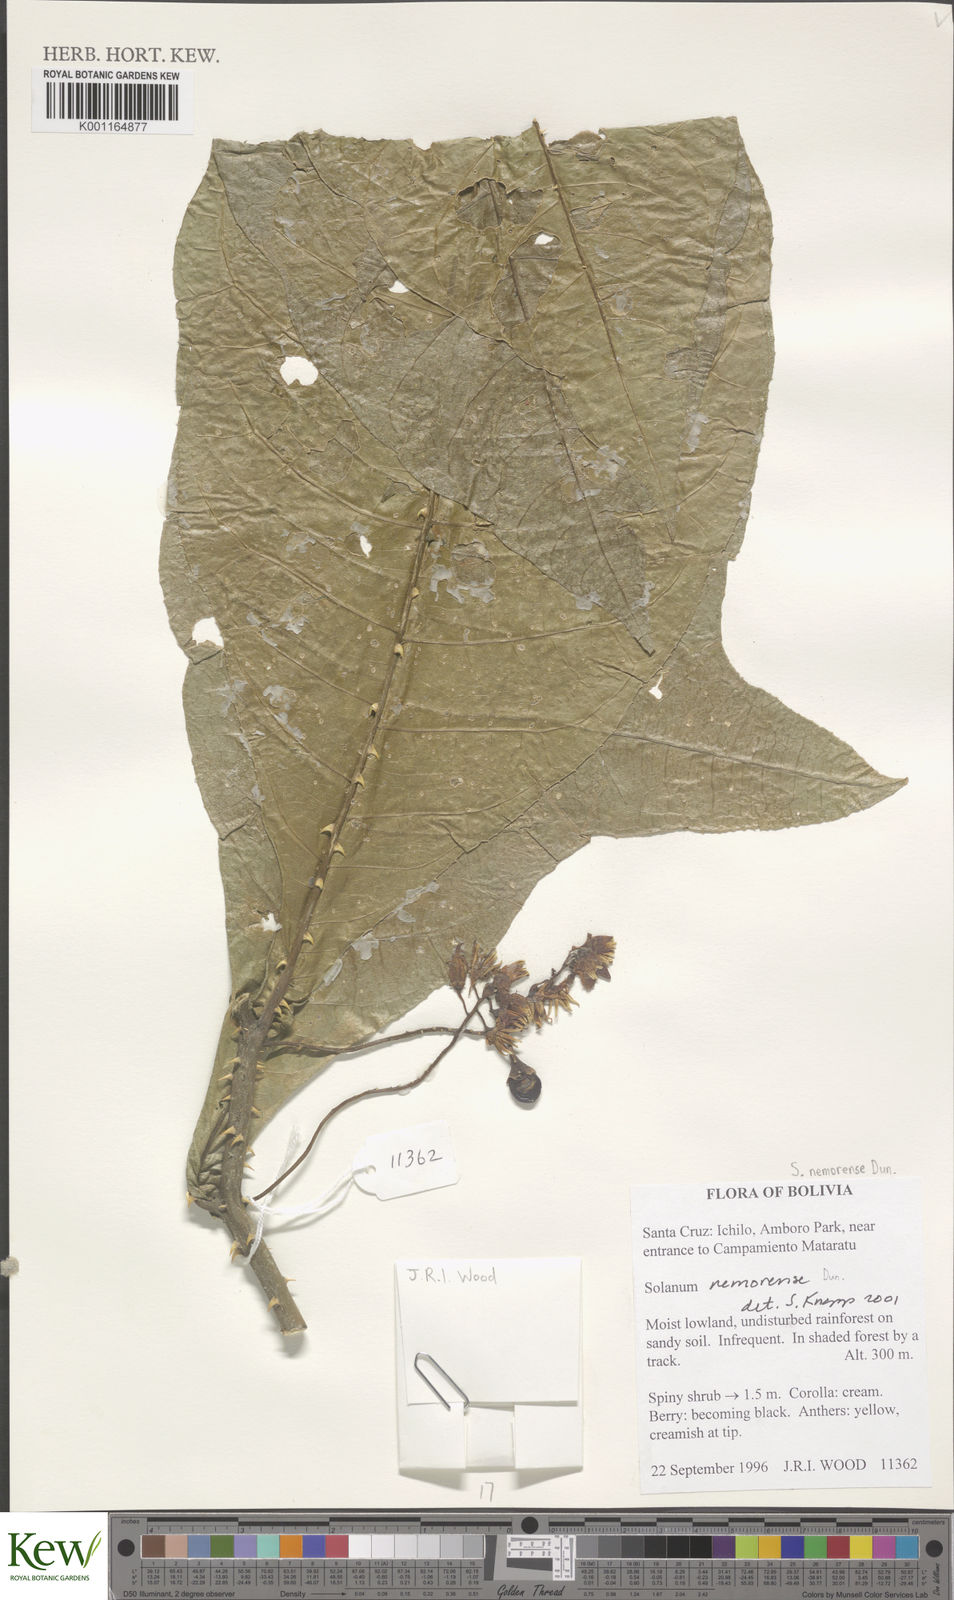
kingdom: Plantae
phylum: Tracheophyta
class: Magnoliopsida
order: Solanales
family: Solanaceae
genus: Solanum
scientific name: Solanum nemorense
